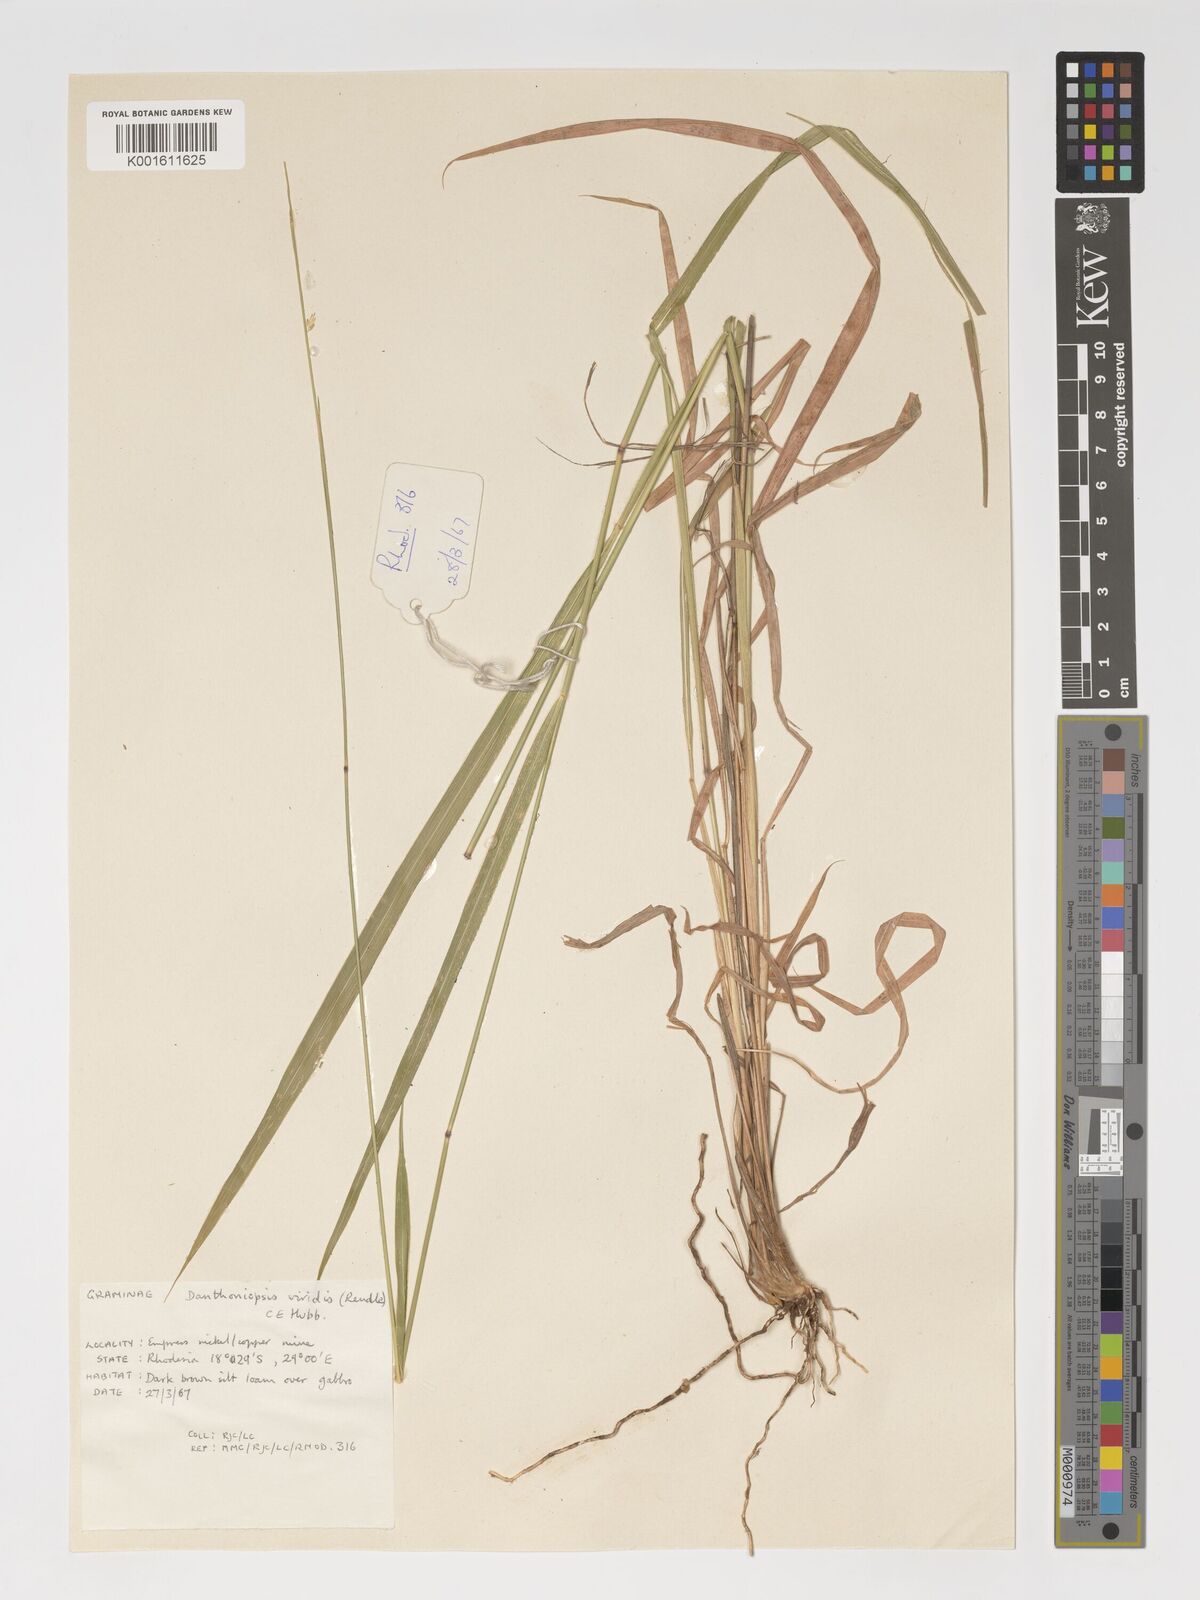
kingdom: Plantae
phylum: Tracheophyta
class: Liliopsida
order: Poales
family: Poaceae
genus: Danthoniopsis
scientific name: Danthoniopsis viridis
